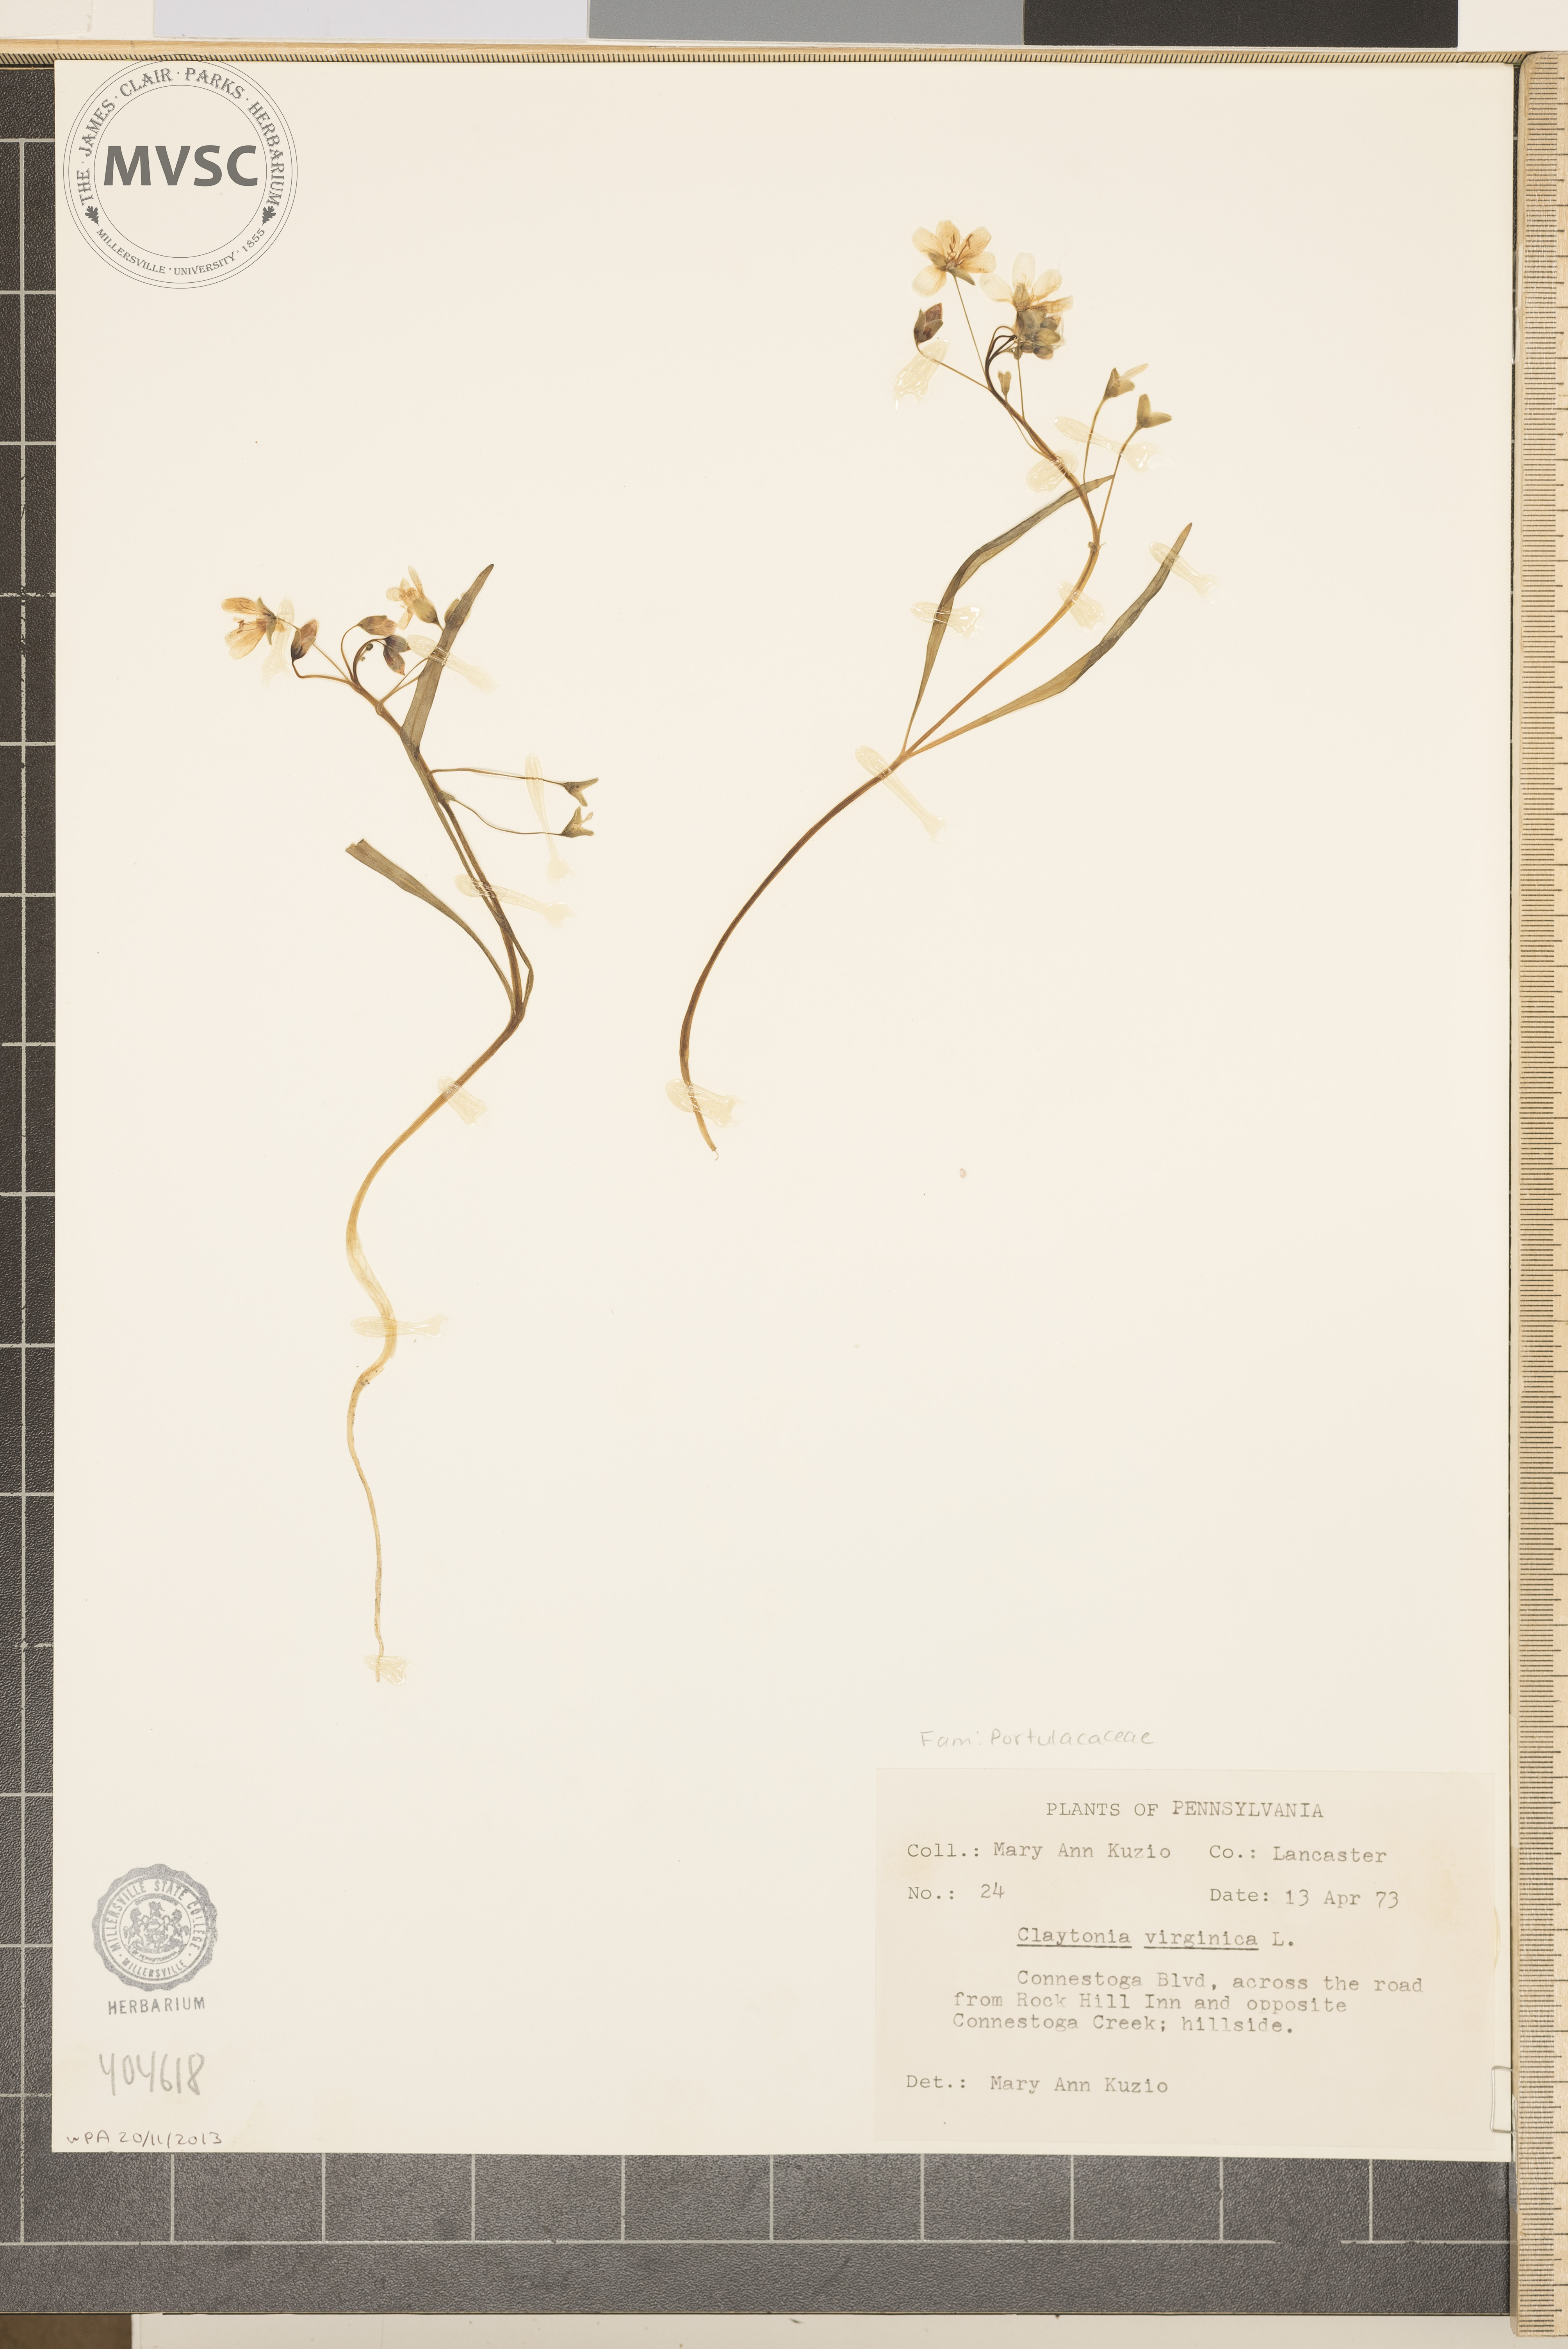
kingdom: Plantae
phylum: Tracheophyta
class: Magnoliopsida
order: Caryophyllales
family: Montiaceae
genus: Claytonia
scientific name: Claytonia virginica
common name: Virginia springbeauty
